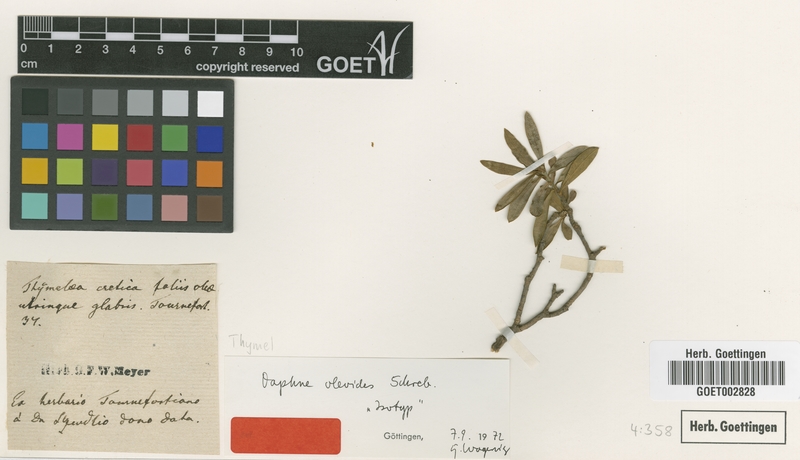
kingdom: Plantae
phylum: Tracheophyta
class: Magnoliopsida
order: Malvales
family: Thymelaeaceae
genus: Daphne
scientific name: Daphne oleoides
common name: Spurge-olive
